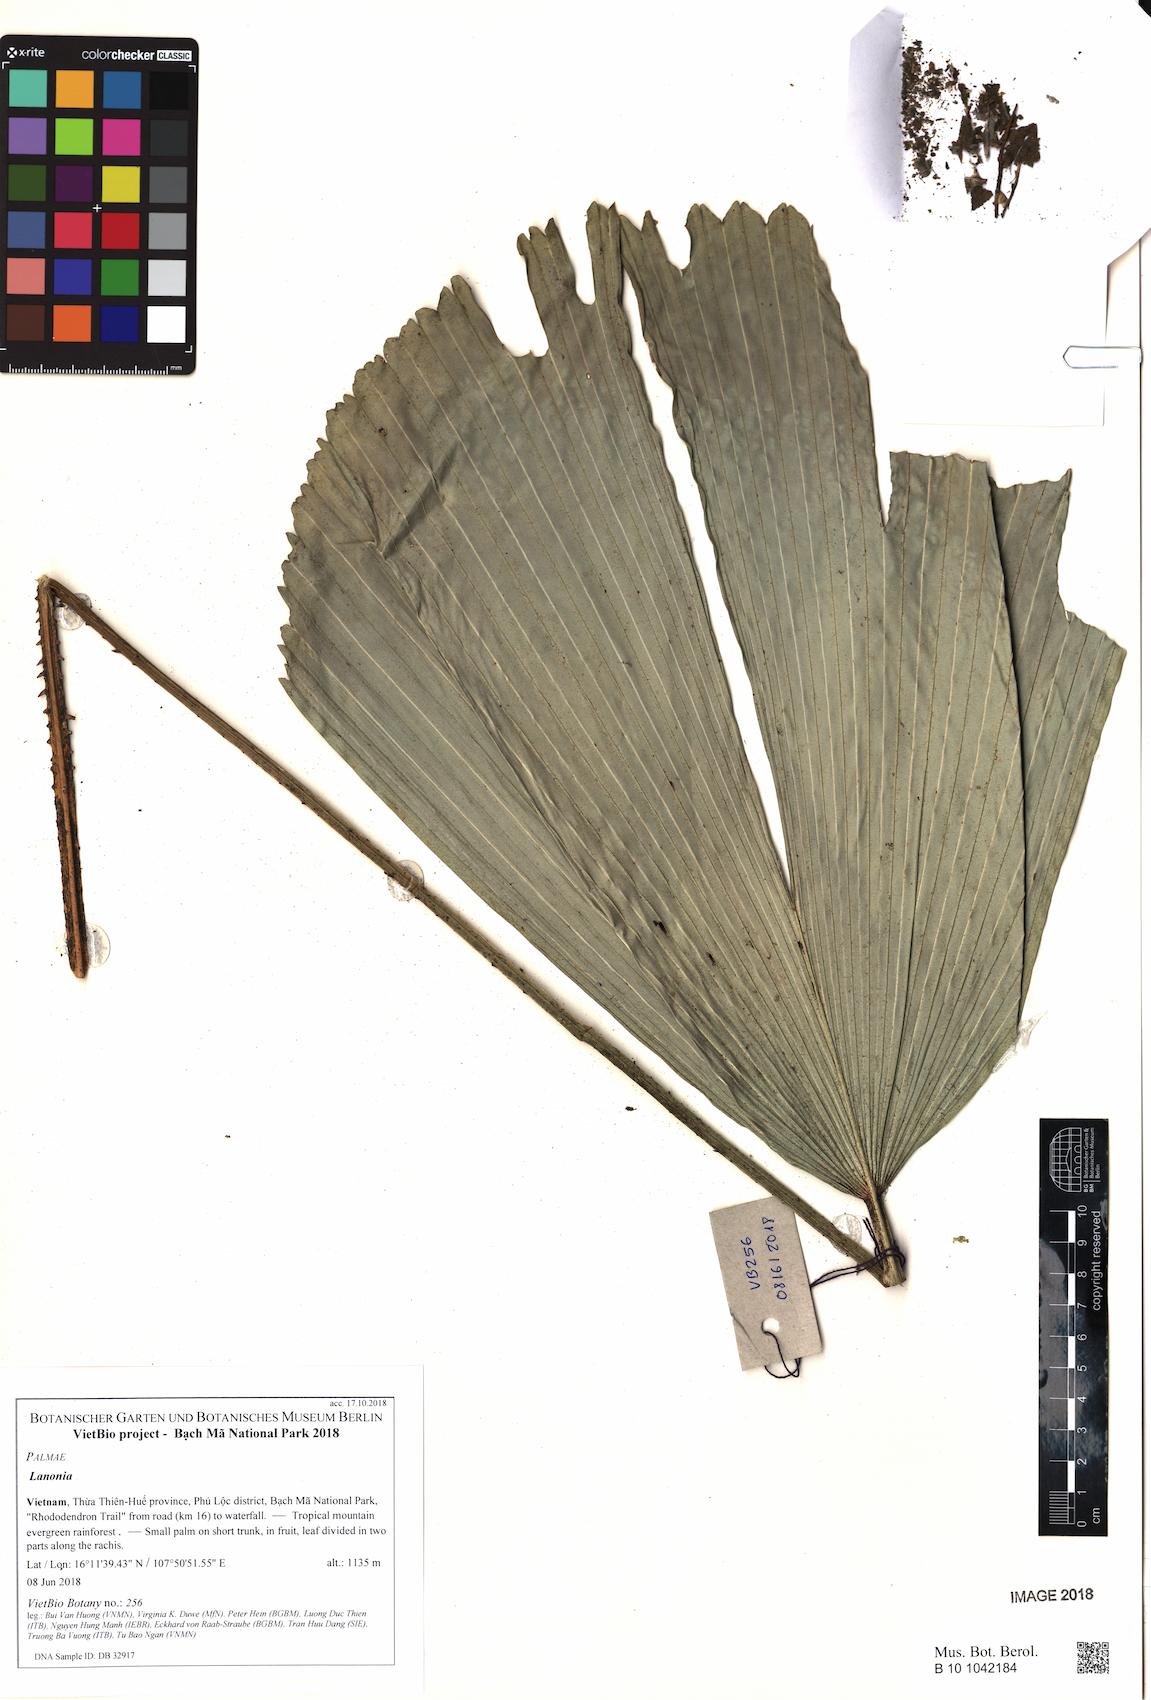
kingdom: Plantae
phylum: Tracheophyta
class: Liliopsida
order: Arecales
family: Arecaceae
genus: Lanonia
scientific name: Lanonia
